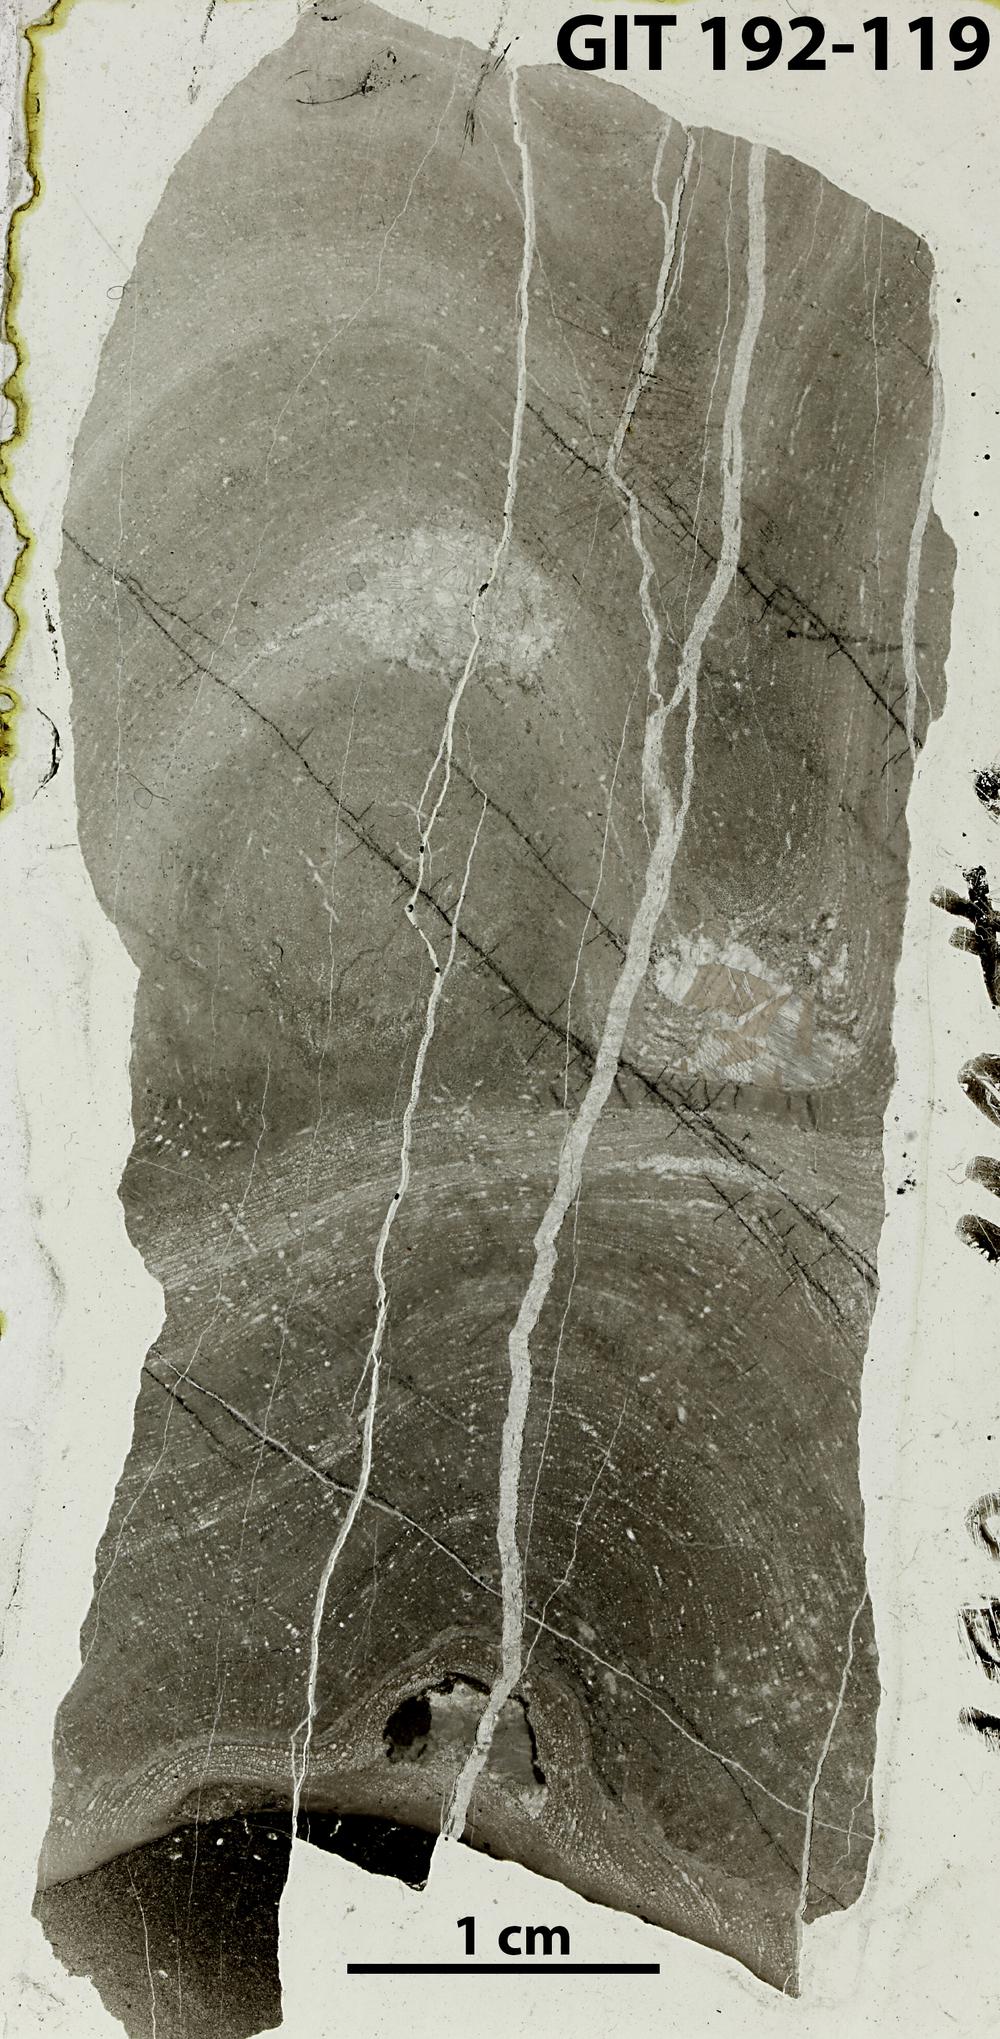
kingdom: Animalia
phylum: Porifera
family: Densastromatidae
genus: Araneosustroma
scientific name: Araneosustroma
